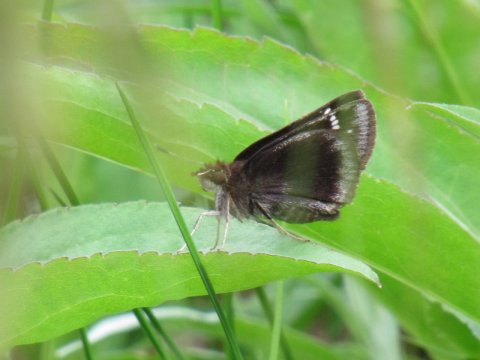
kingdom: Animalia
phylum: Arthropoda
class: Insecta
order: Lepidoptera
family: Hesperiidae
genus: Poanes
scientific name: Poanes
